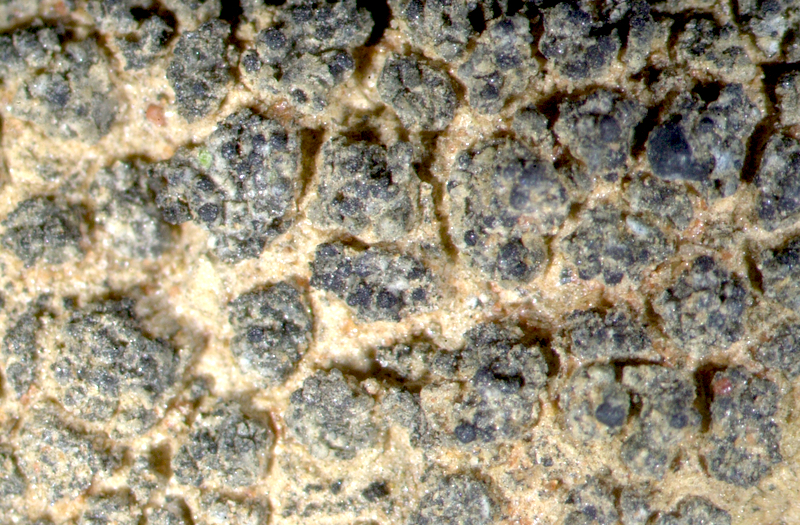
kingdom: Fungi
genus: Lichenicolous
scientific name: Lichenicolous fungus
